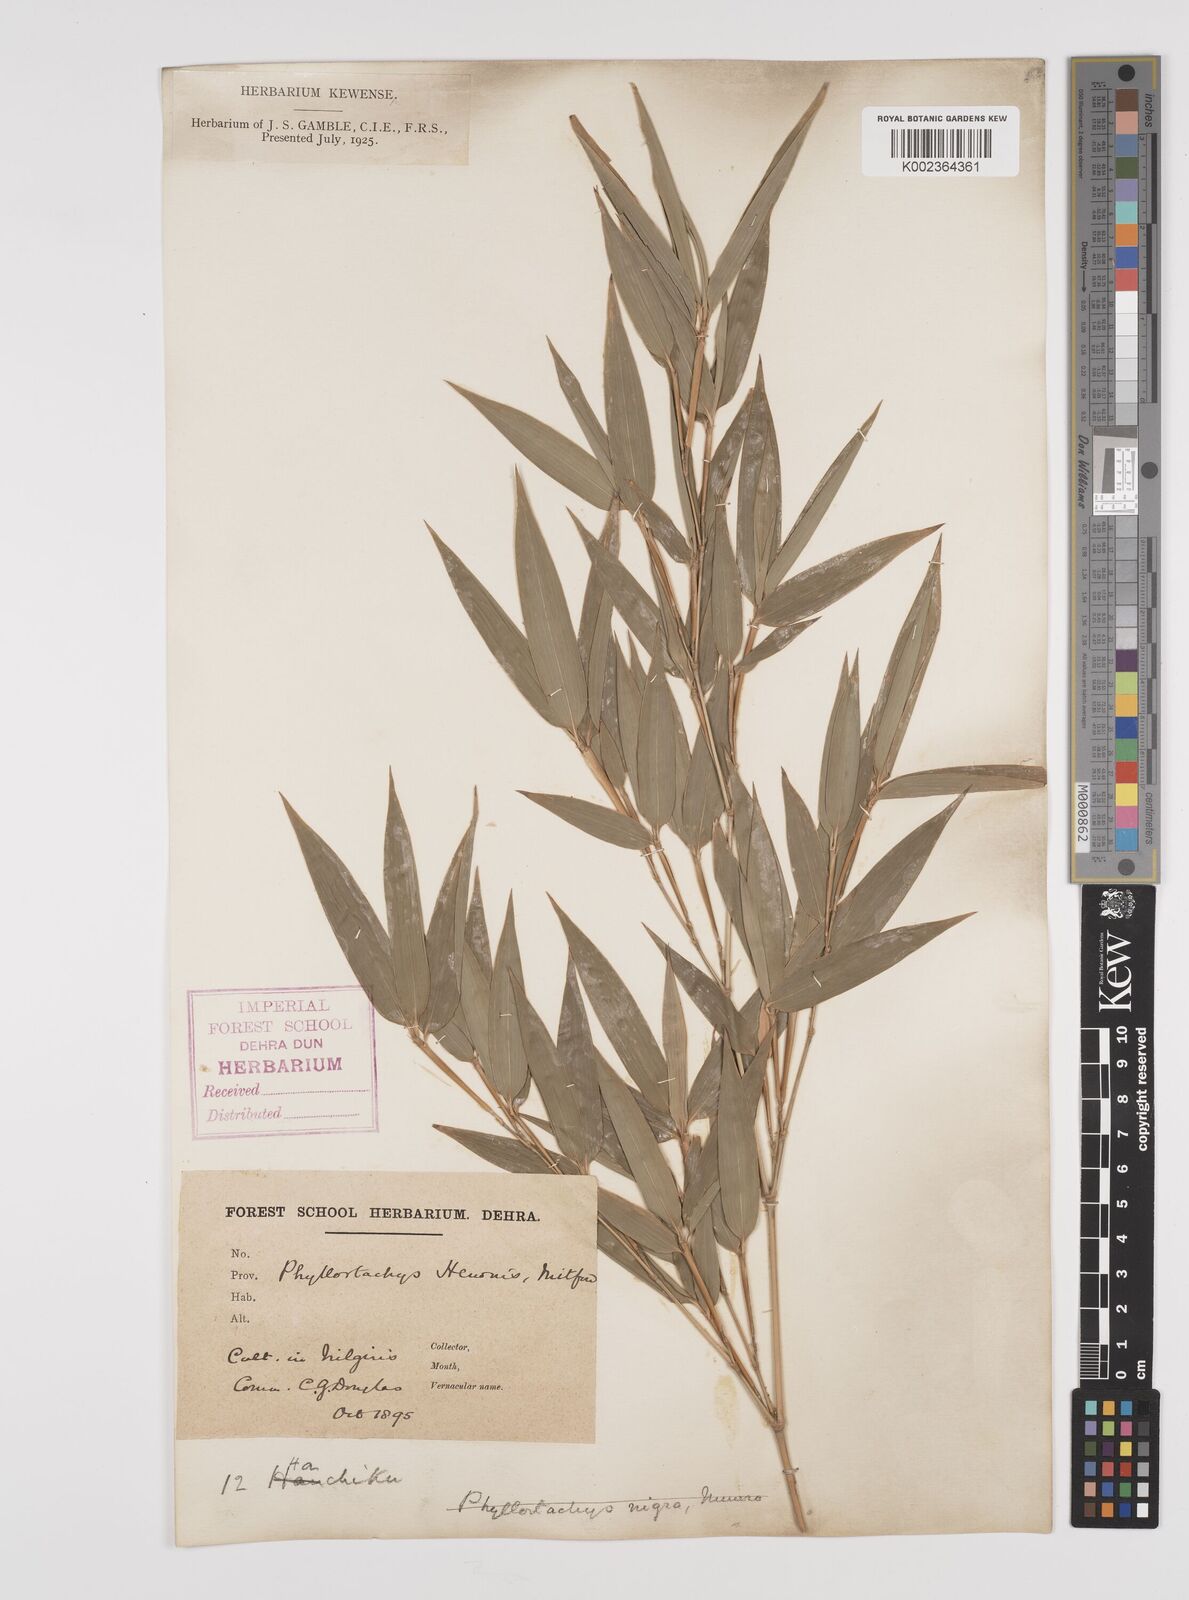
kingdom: Plantae
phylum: Tracheophyta
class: Liliopsida
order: Poales
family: Poaceae
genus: Phyllostachys
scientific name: Phyllostachys nigra
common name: Black bamboo
